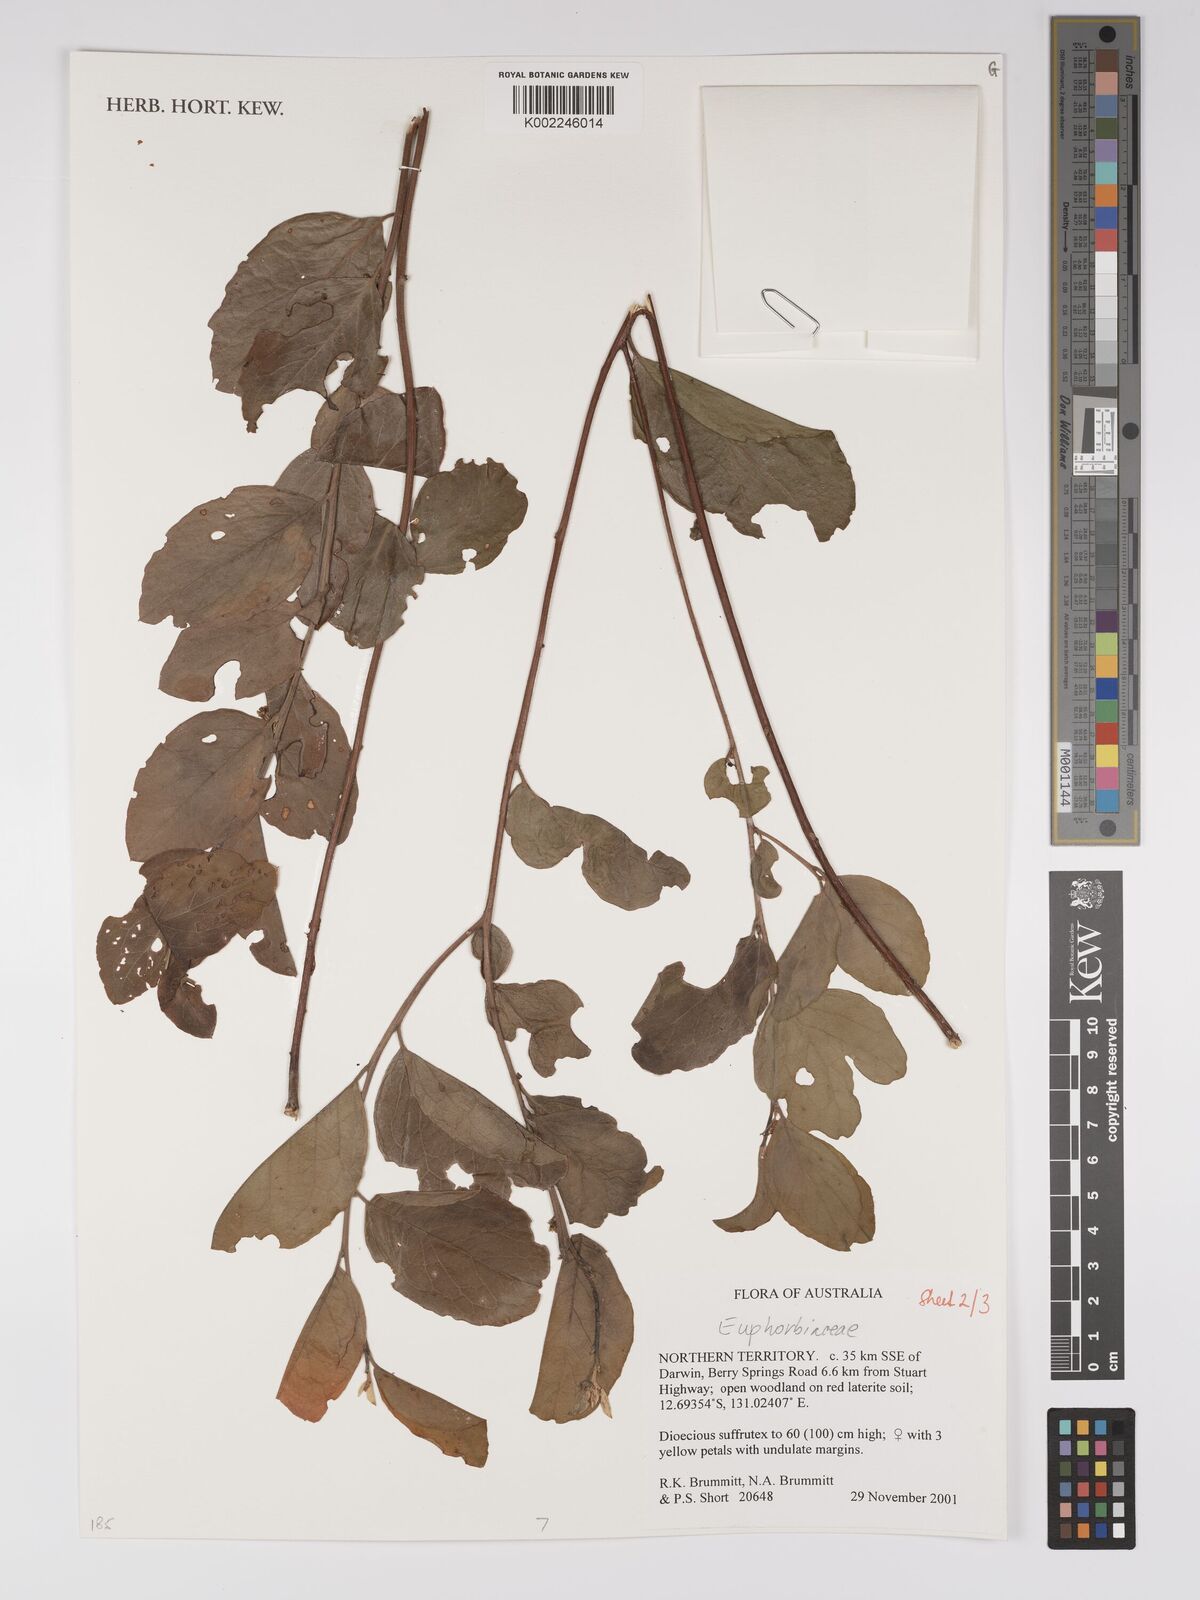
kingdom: Plantae
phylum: Tracheophyta
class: Magnoliopsida
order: Malpighiales
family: Euphorbiaceae
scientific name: Euphorbiaceae
